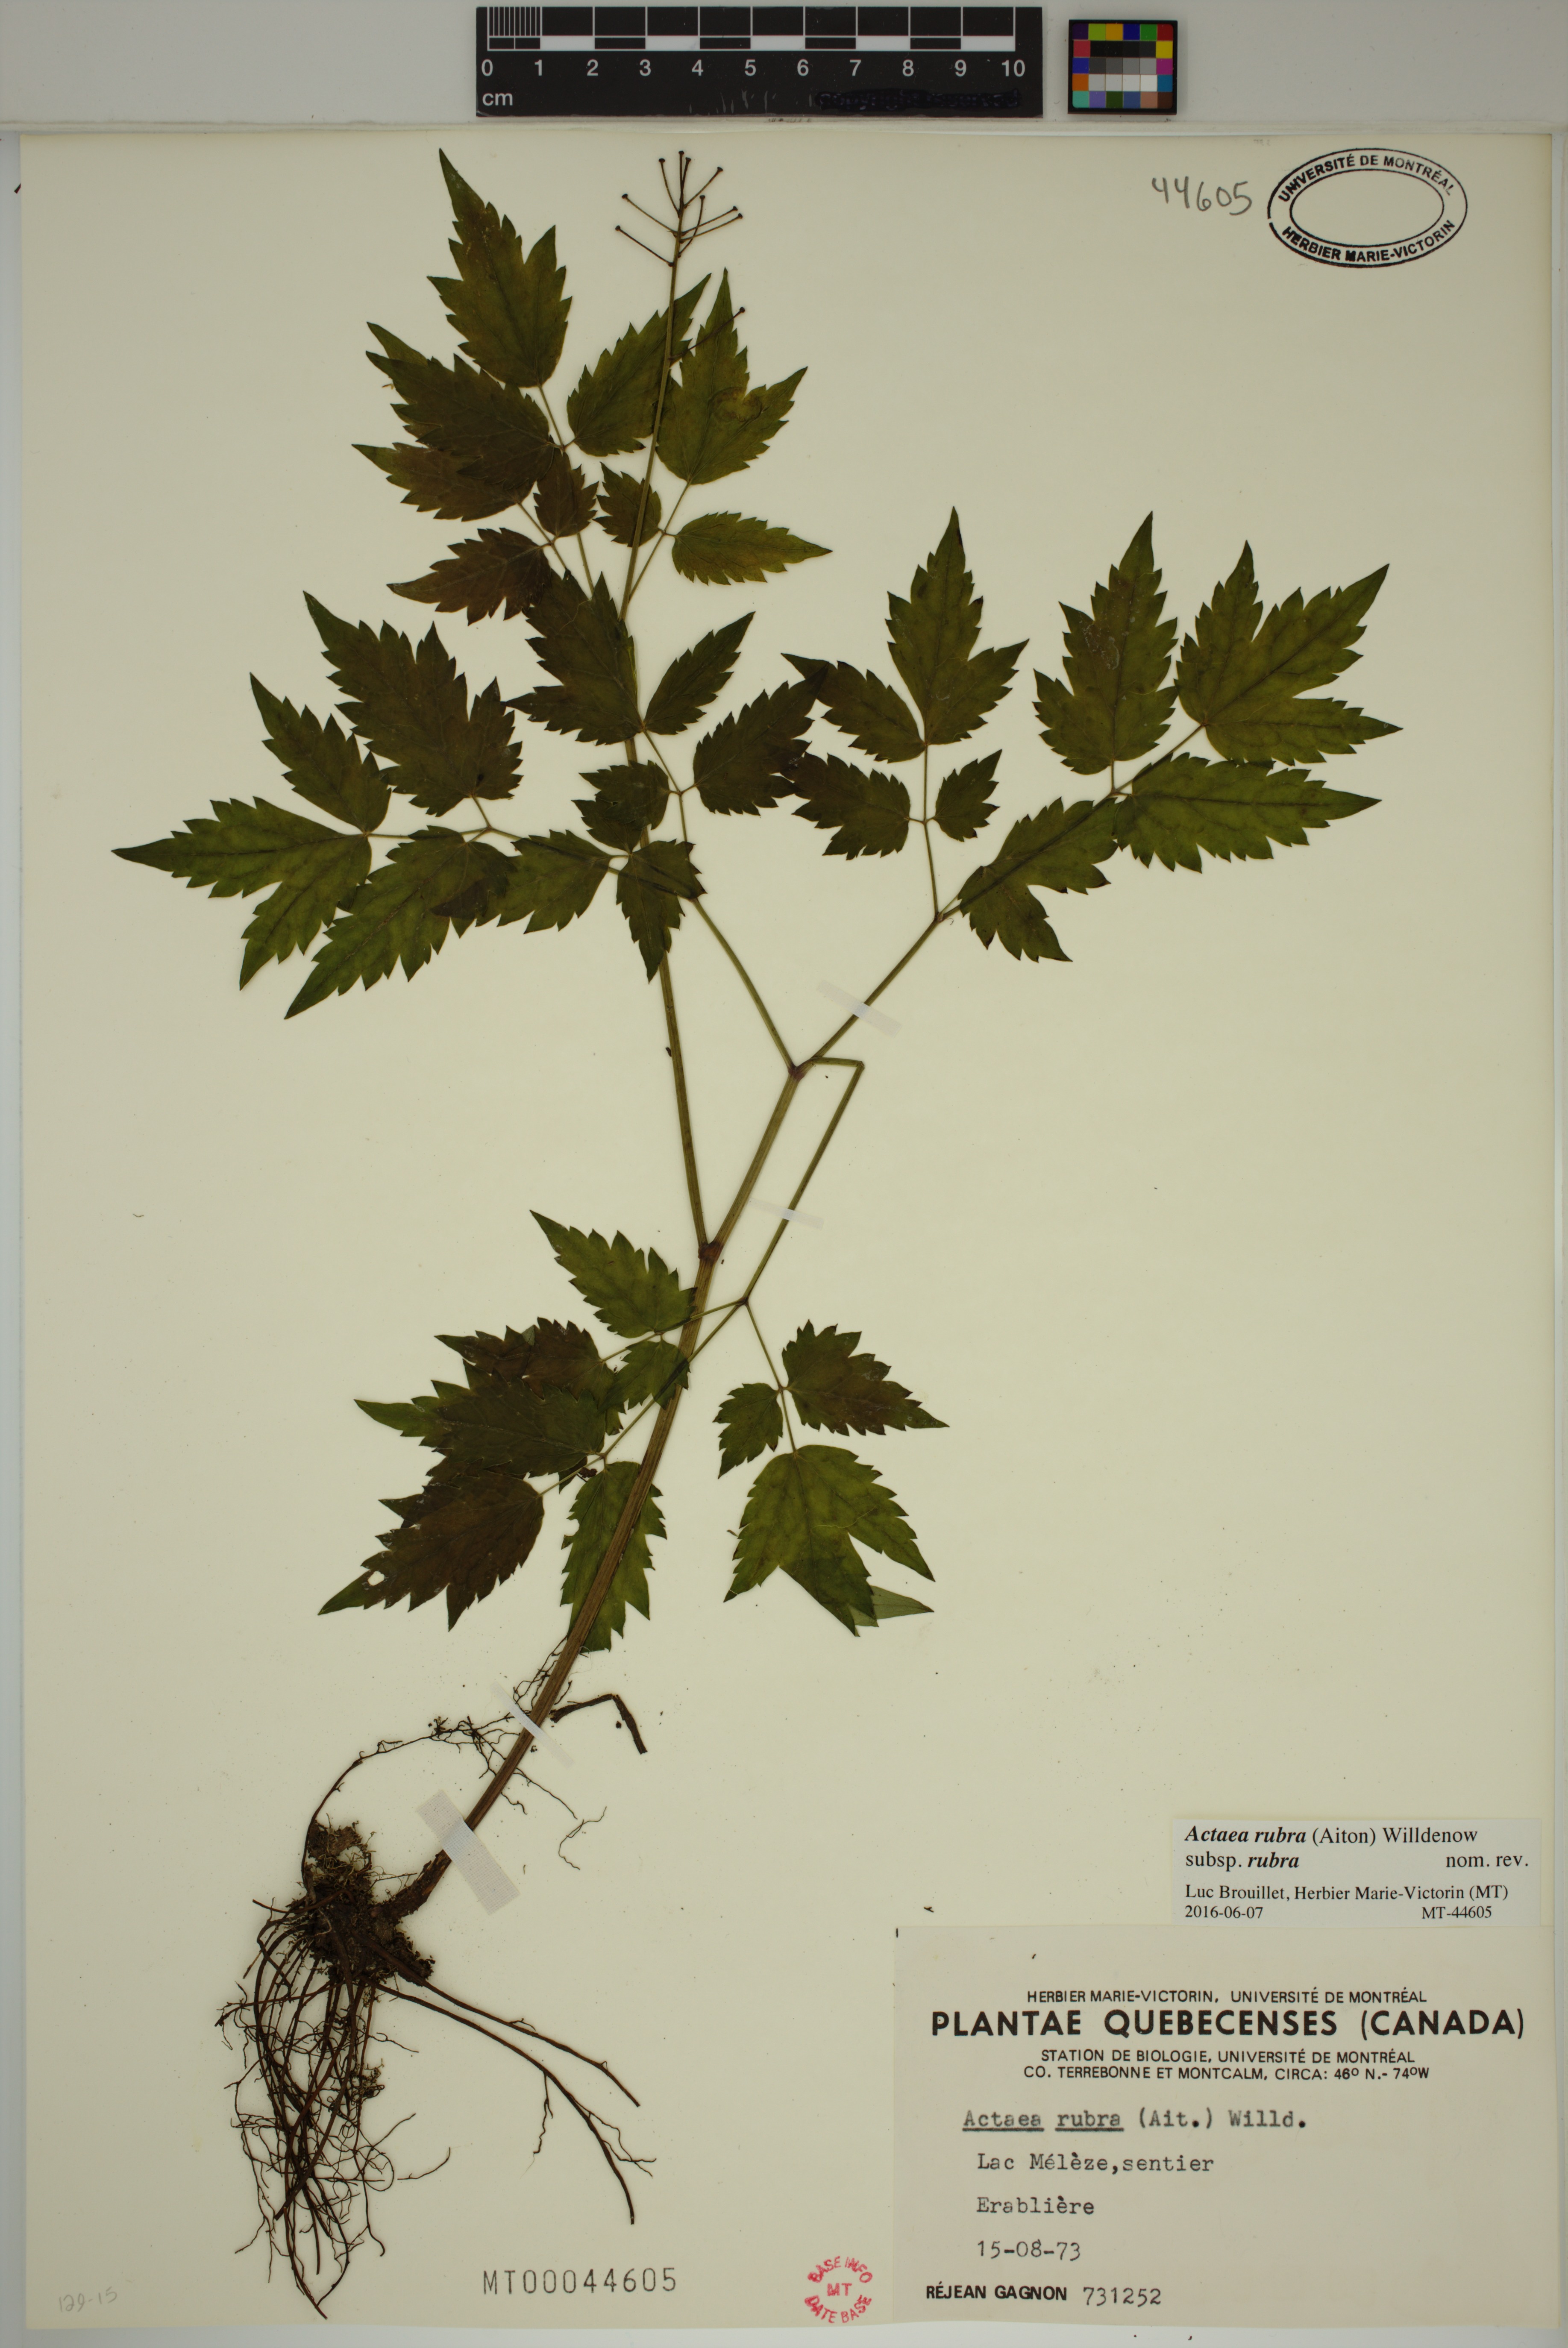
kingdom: Plantae
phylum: Tracheophyta
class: Magnoliopsida
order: Ranunculales
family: Ranunculaceae
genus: Actaea
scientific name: Actaea rubra
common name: Red baneberry
